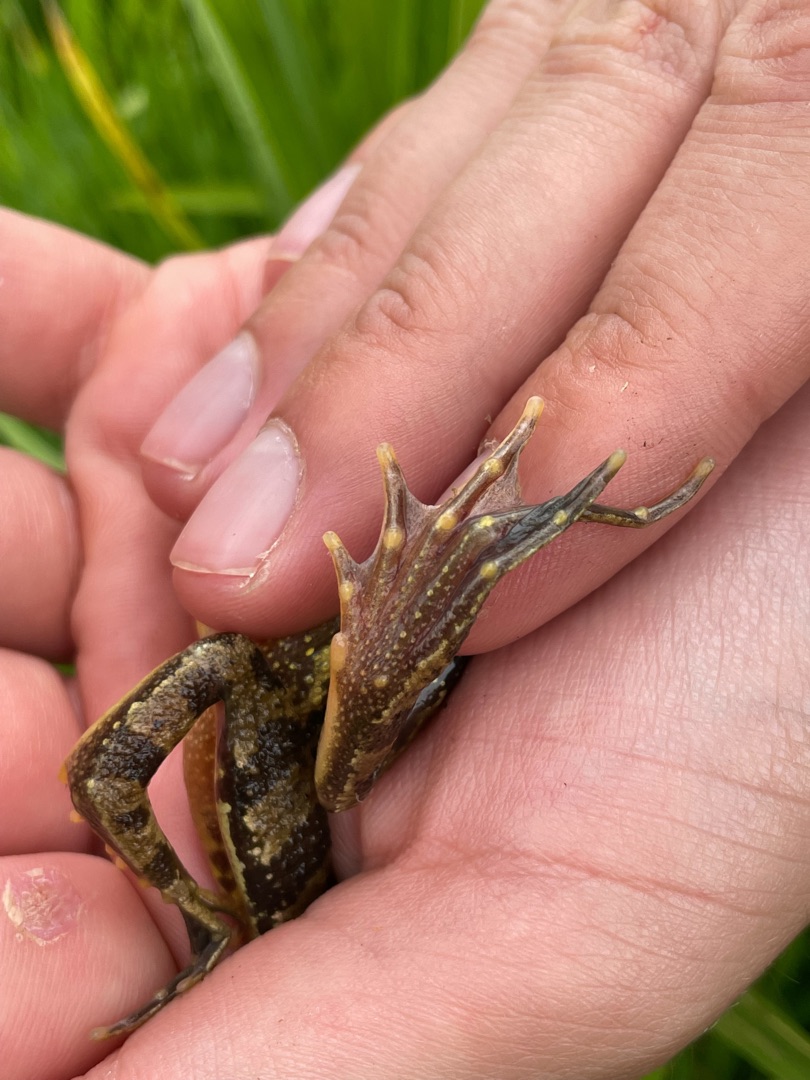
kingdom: Animalia
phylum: Chordata
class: Amphibia
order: Anura
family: Ranidae
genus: Rana
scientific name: Rana temporaria
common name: Butsnudet frø
